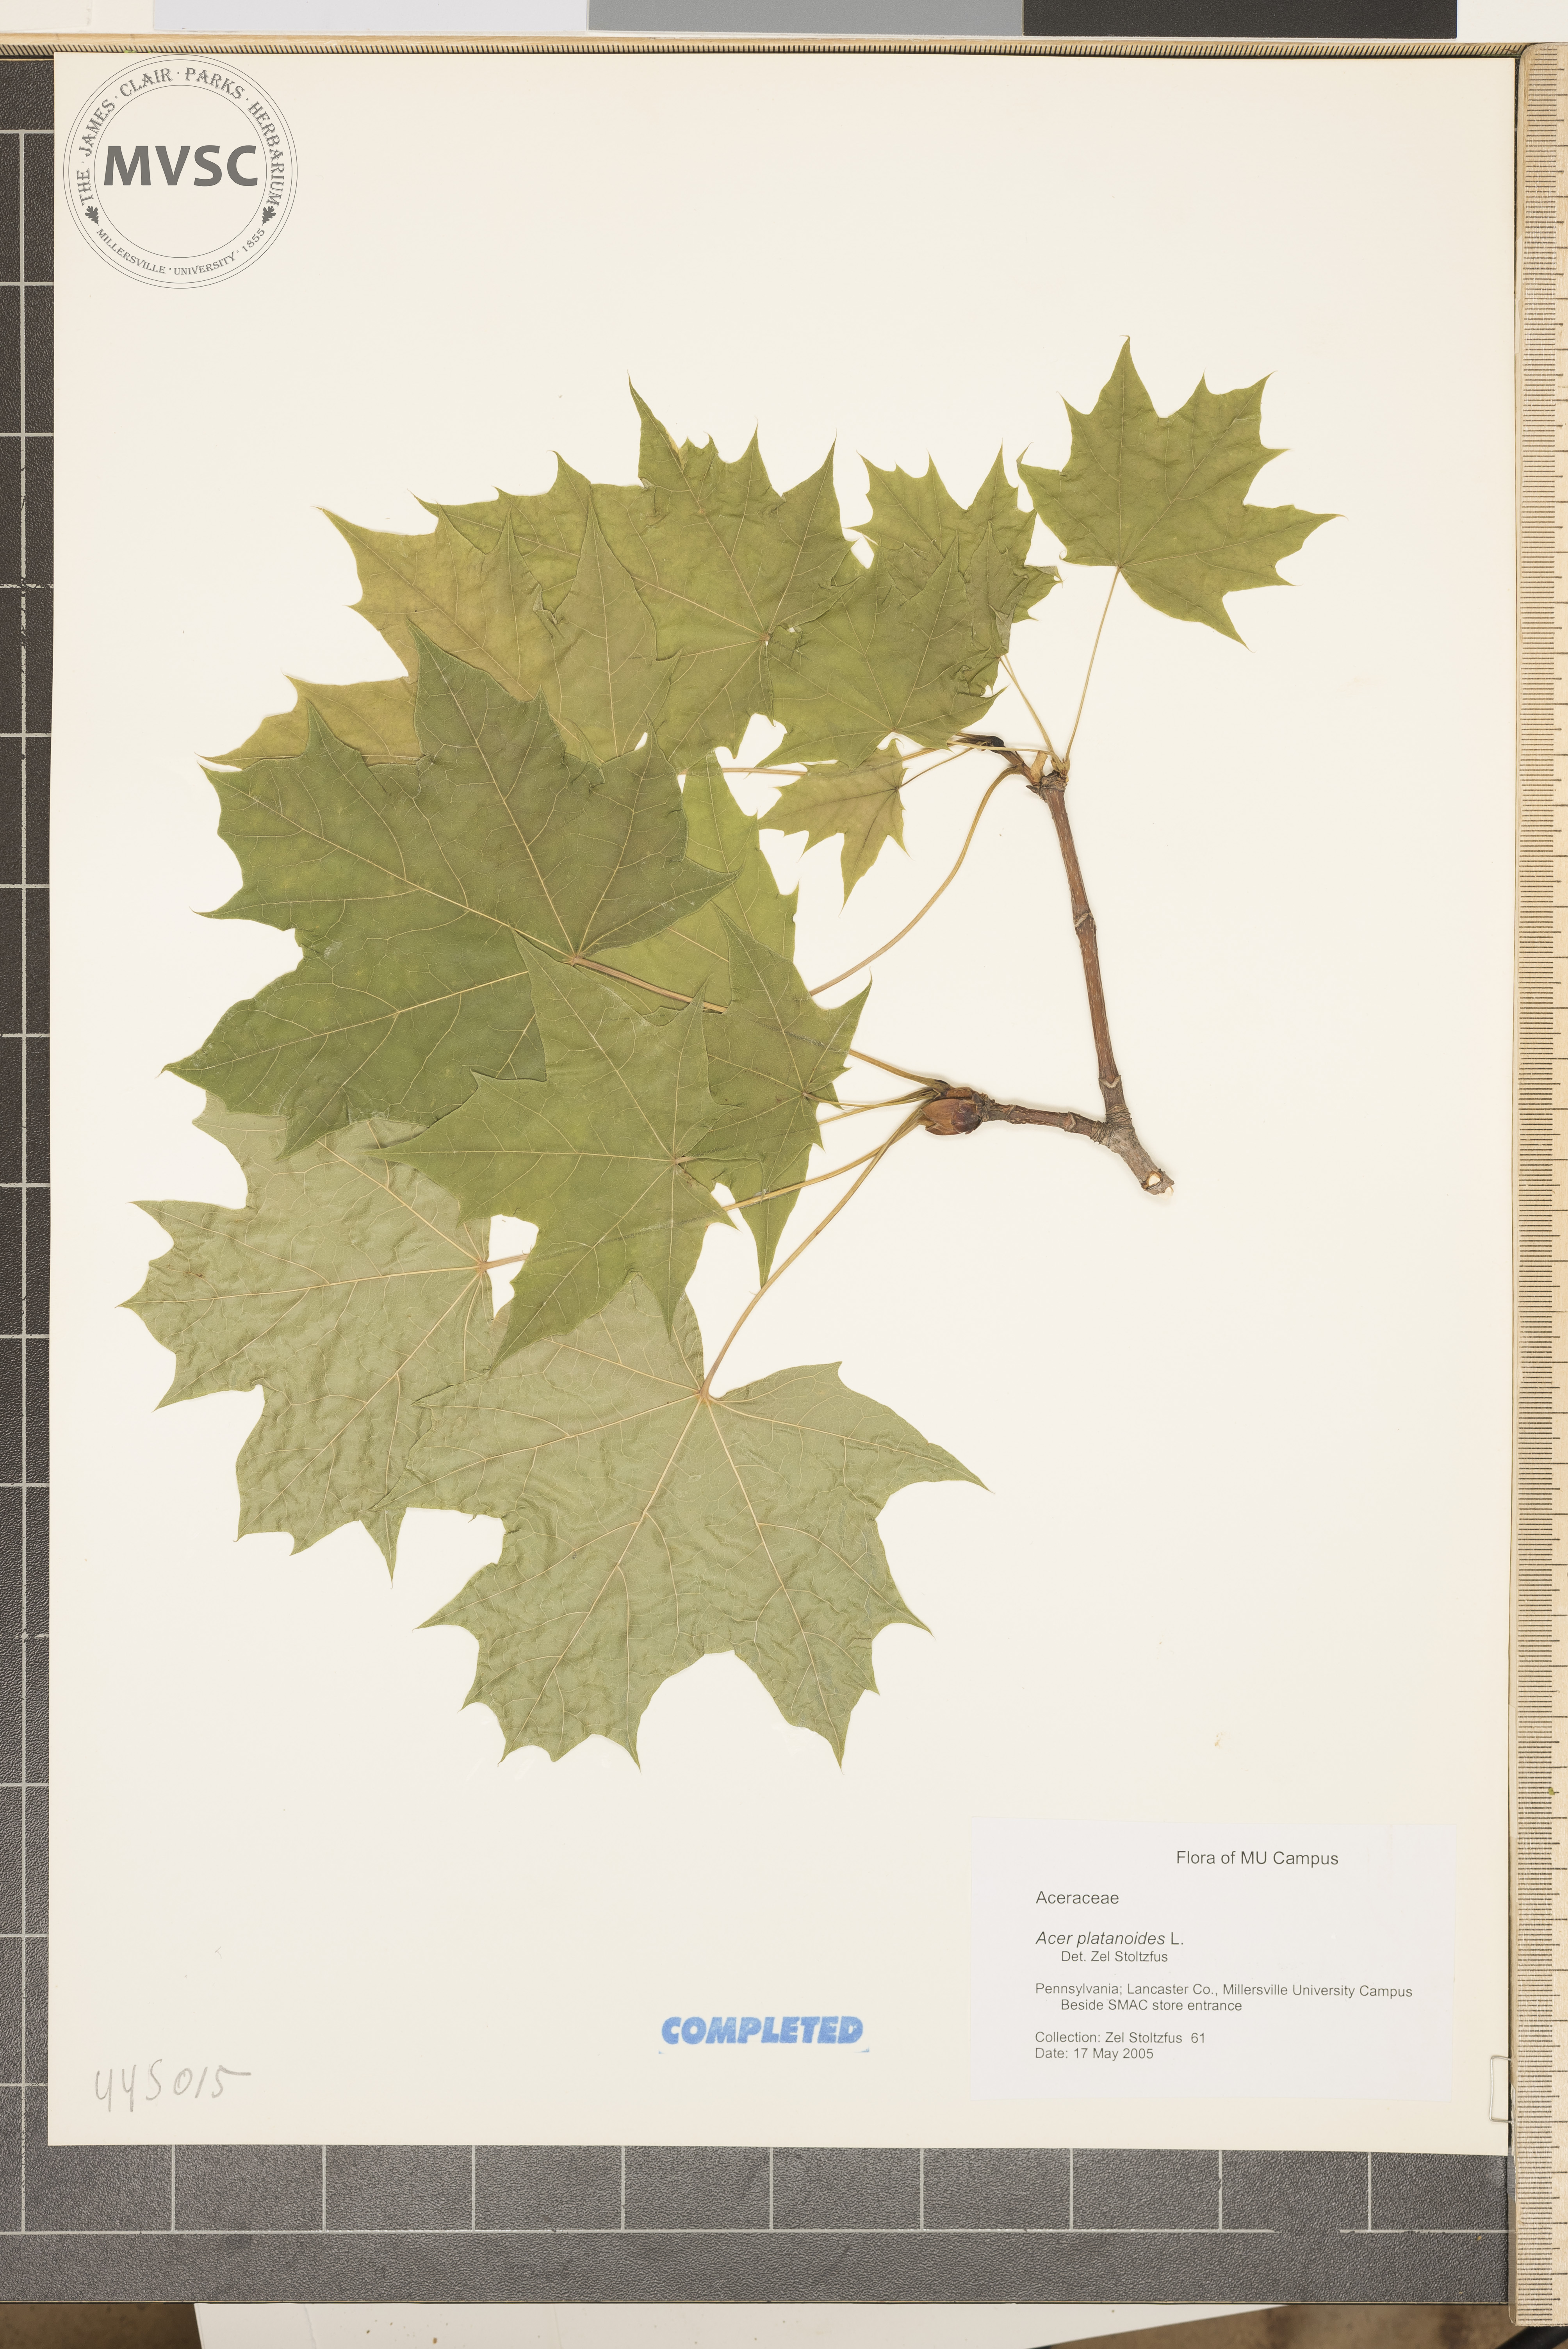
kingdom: Plantae
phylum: Tracheophyta
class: Magnoliopsida
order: Sapindales
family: Sapindaceae
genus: Acer
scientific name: Acer platanoides
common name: Norway maple
